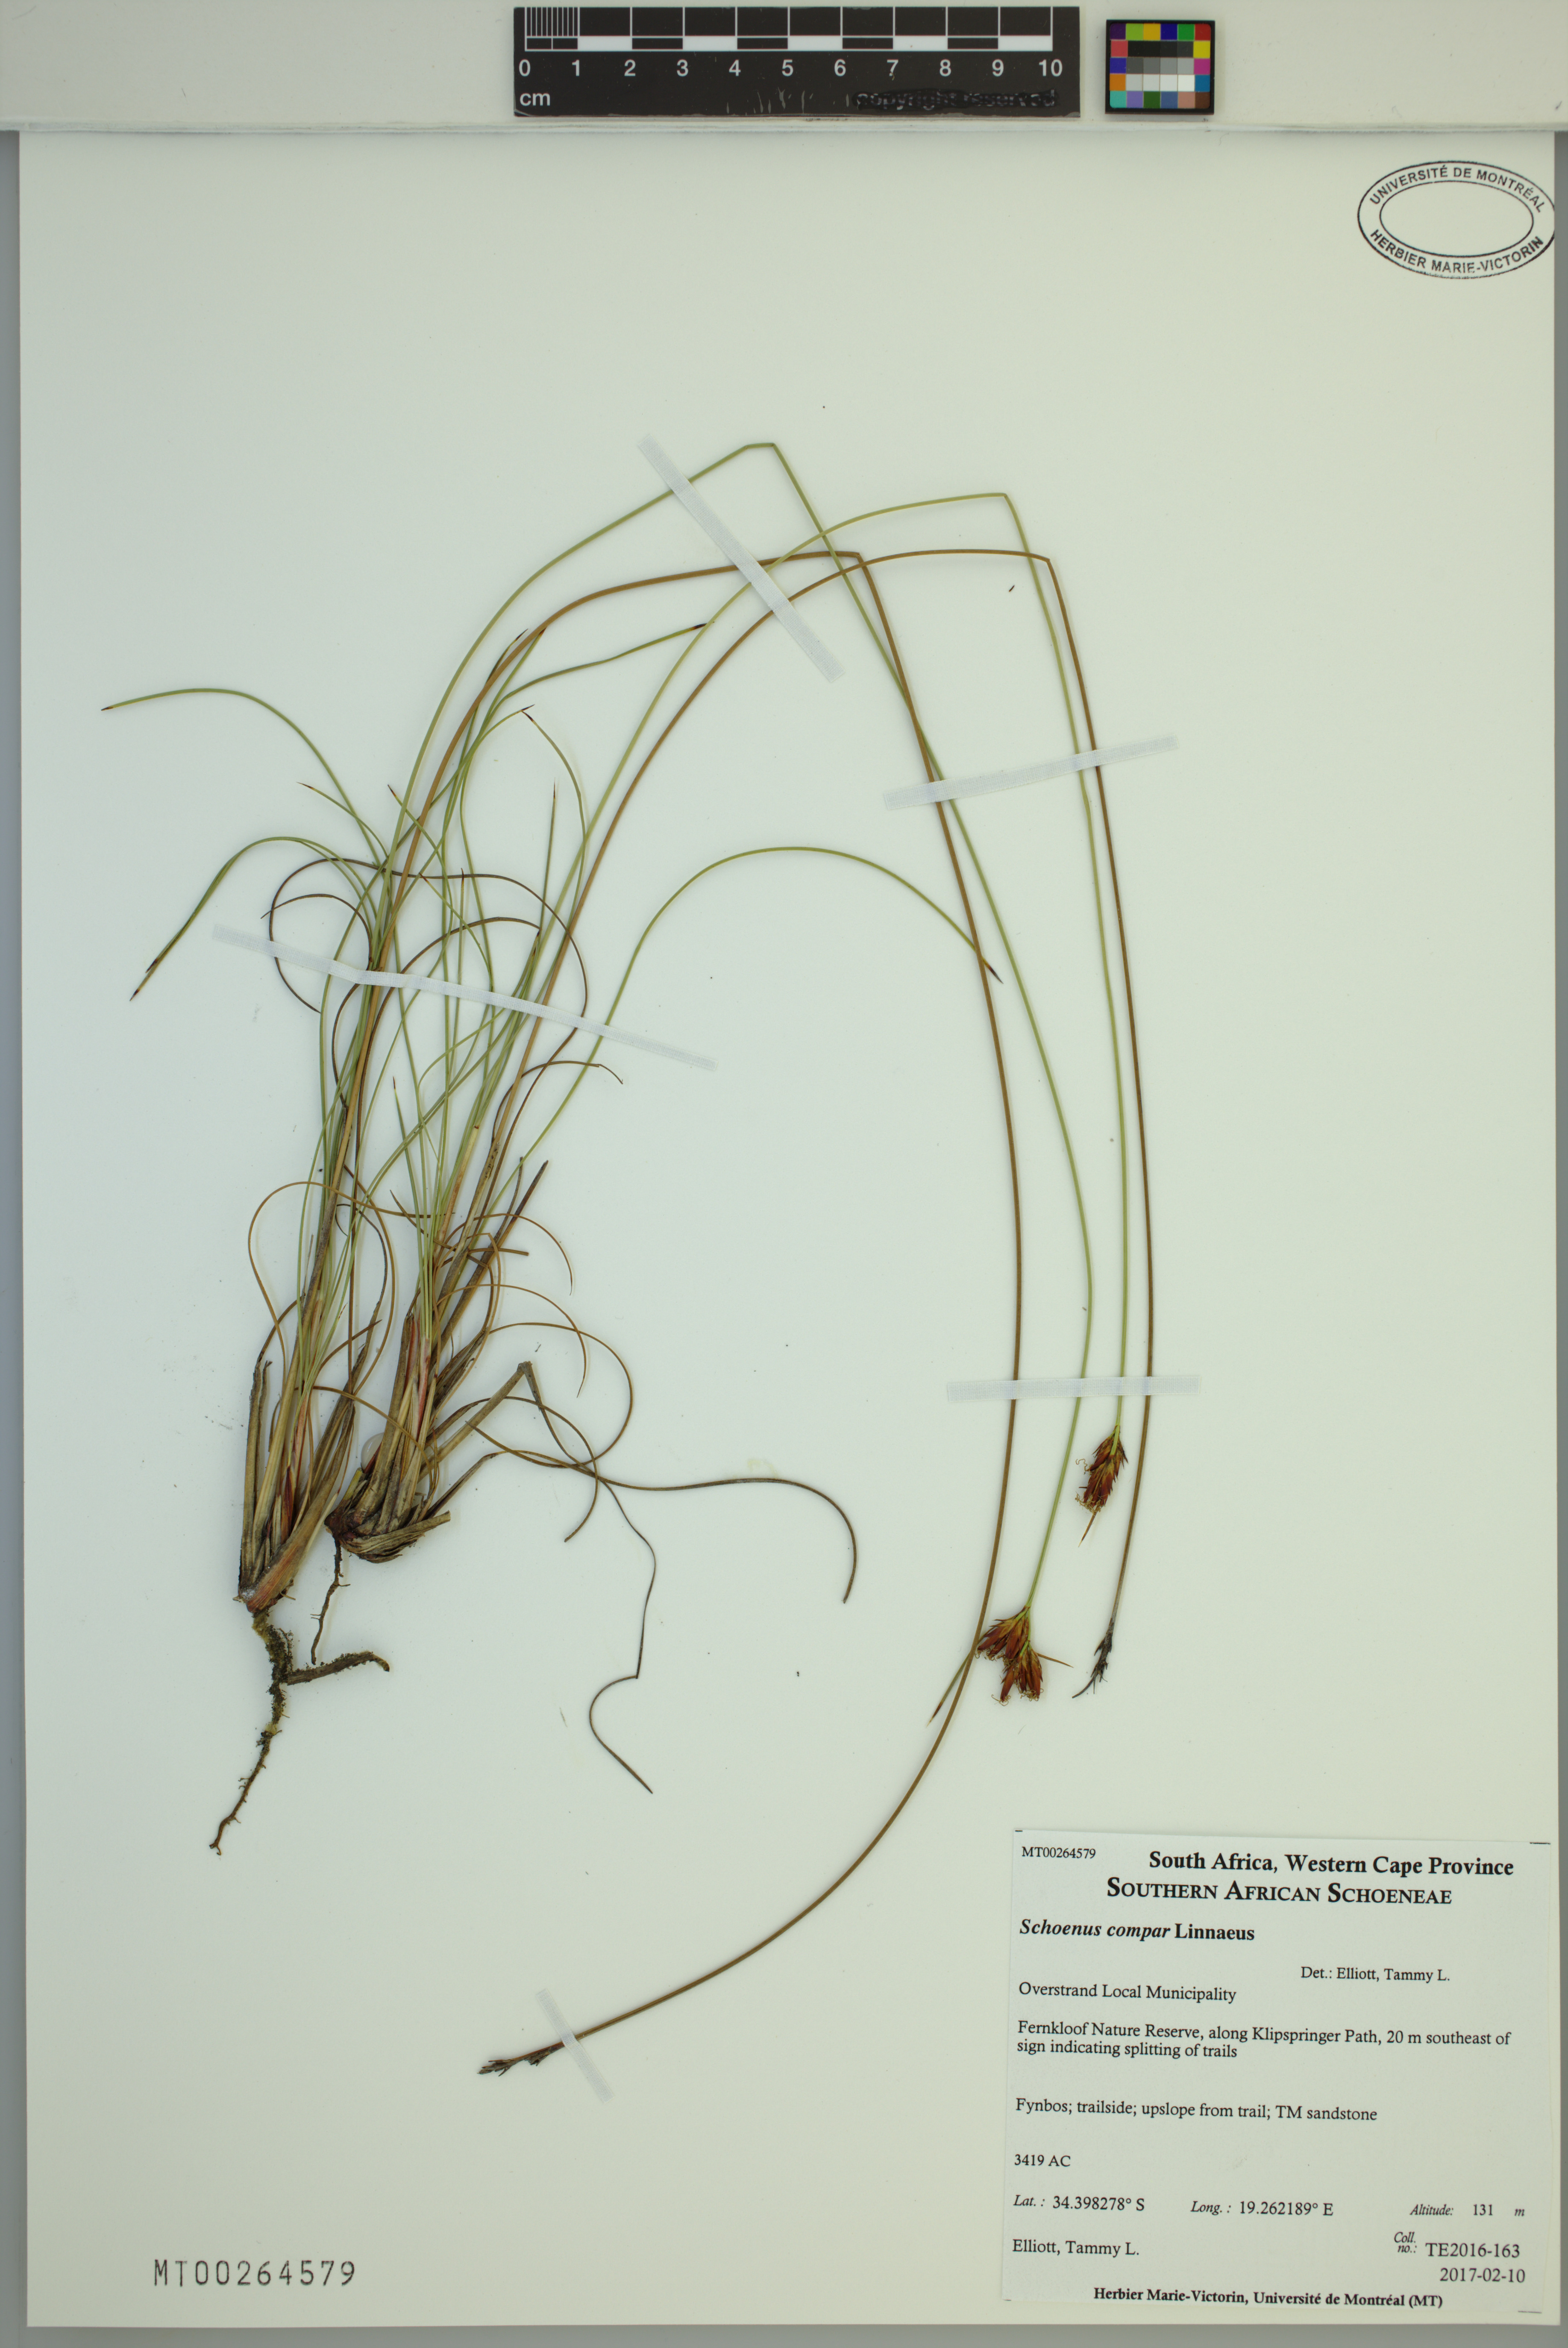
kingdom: Plantae
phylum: Tracheophyta
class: Liliopsida
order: Poales
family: Cyperaceae
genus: Schoenus
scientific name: Schoenus compar
